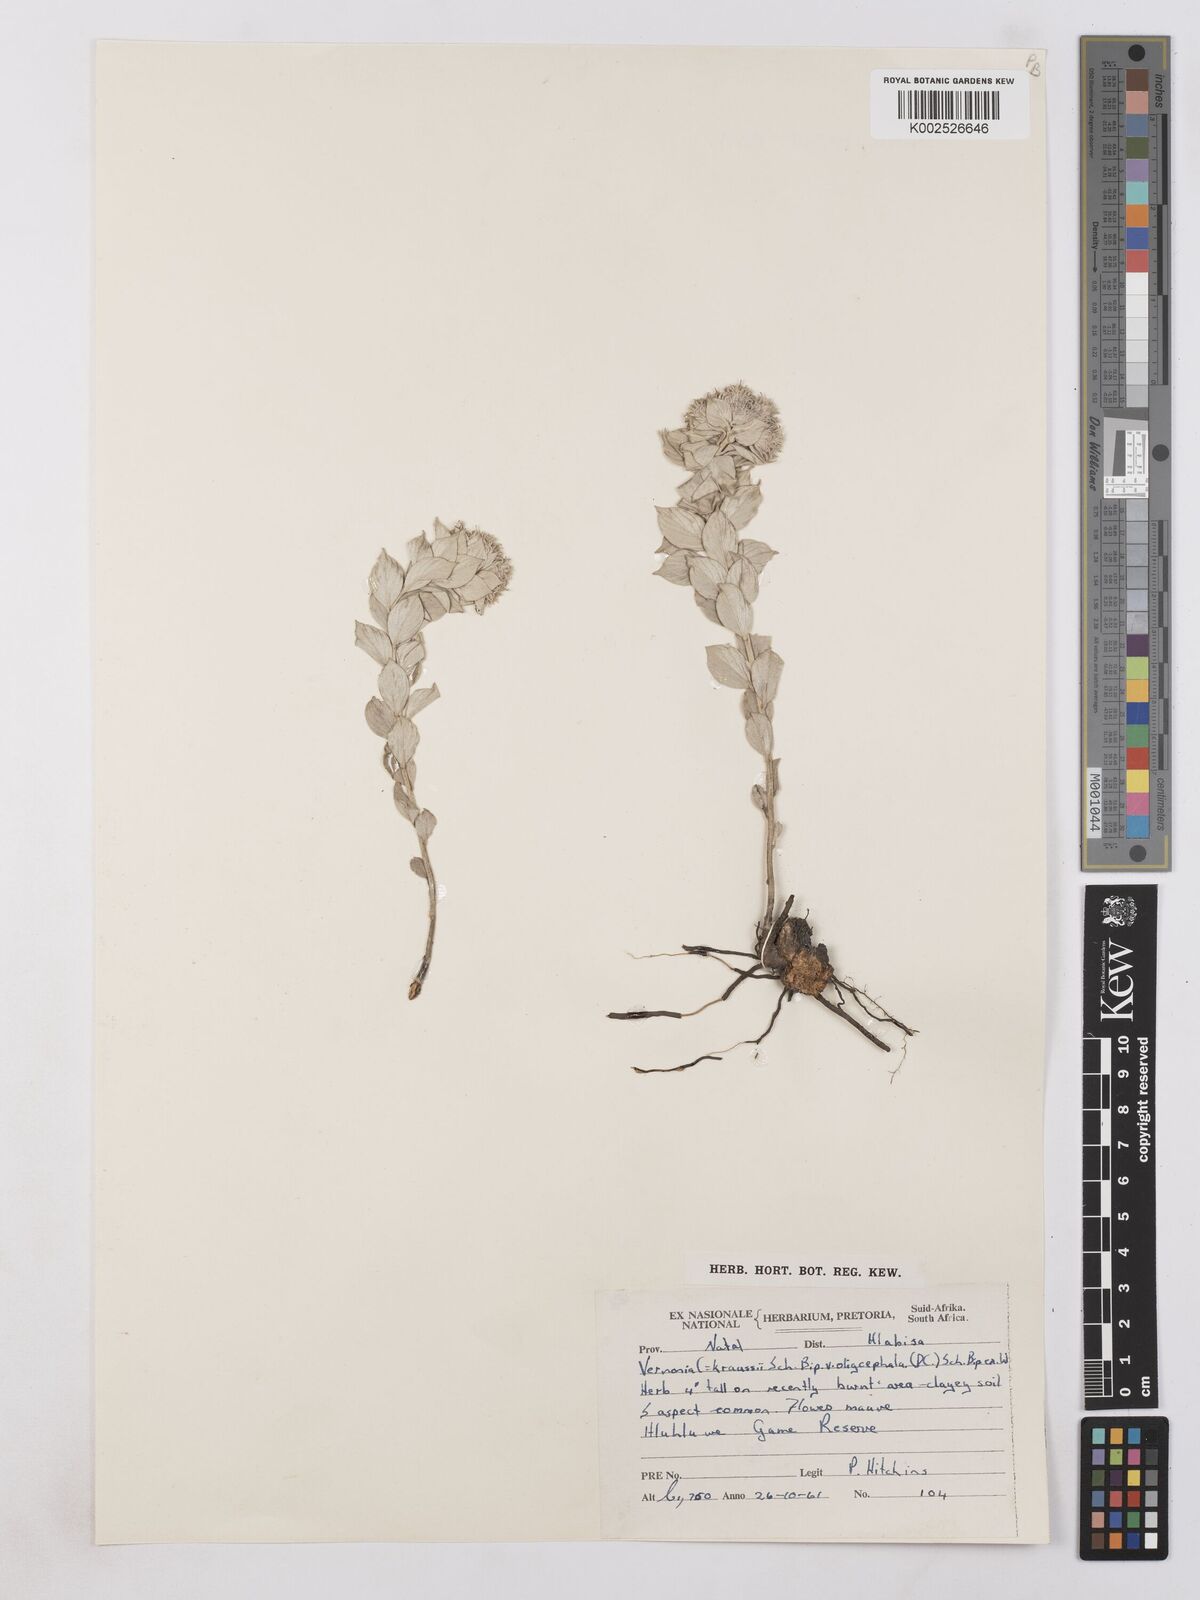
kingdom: Plantae
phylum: Tracheophyta
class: Magnoliopsida
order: Asterales
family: Asteraceae
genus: Hilliardiella
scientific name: Hilliardiella oligocephala
